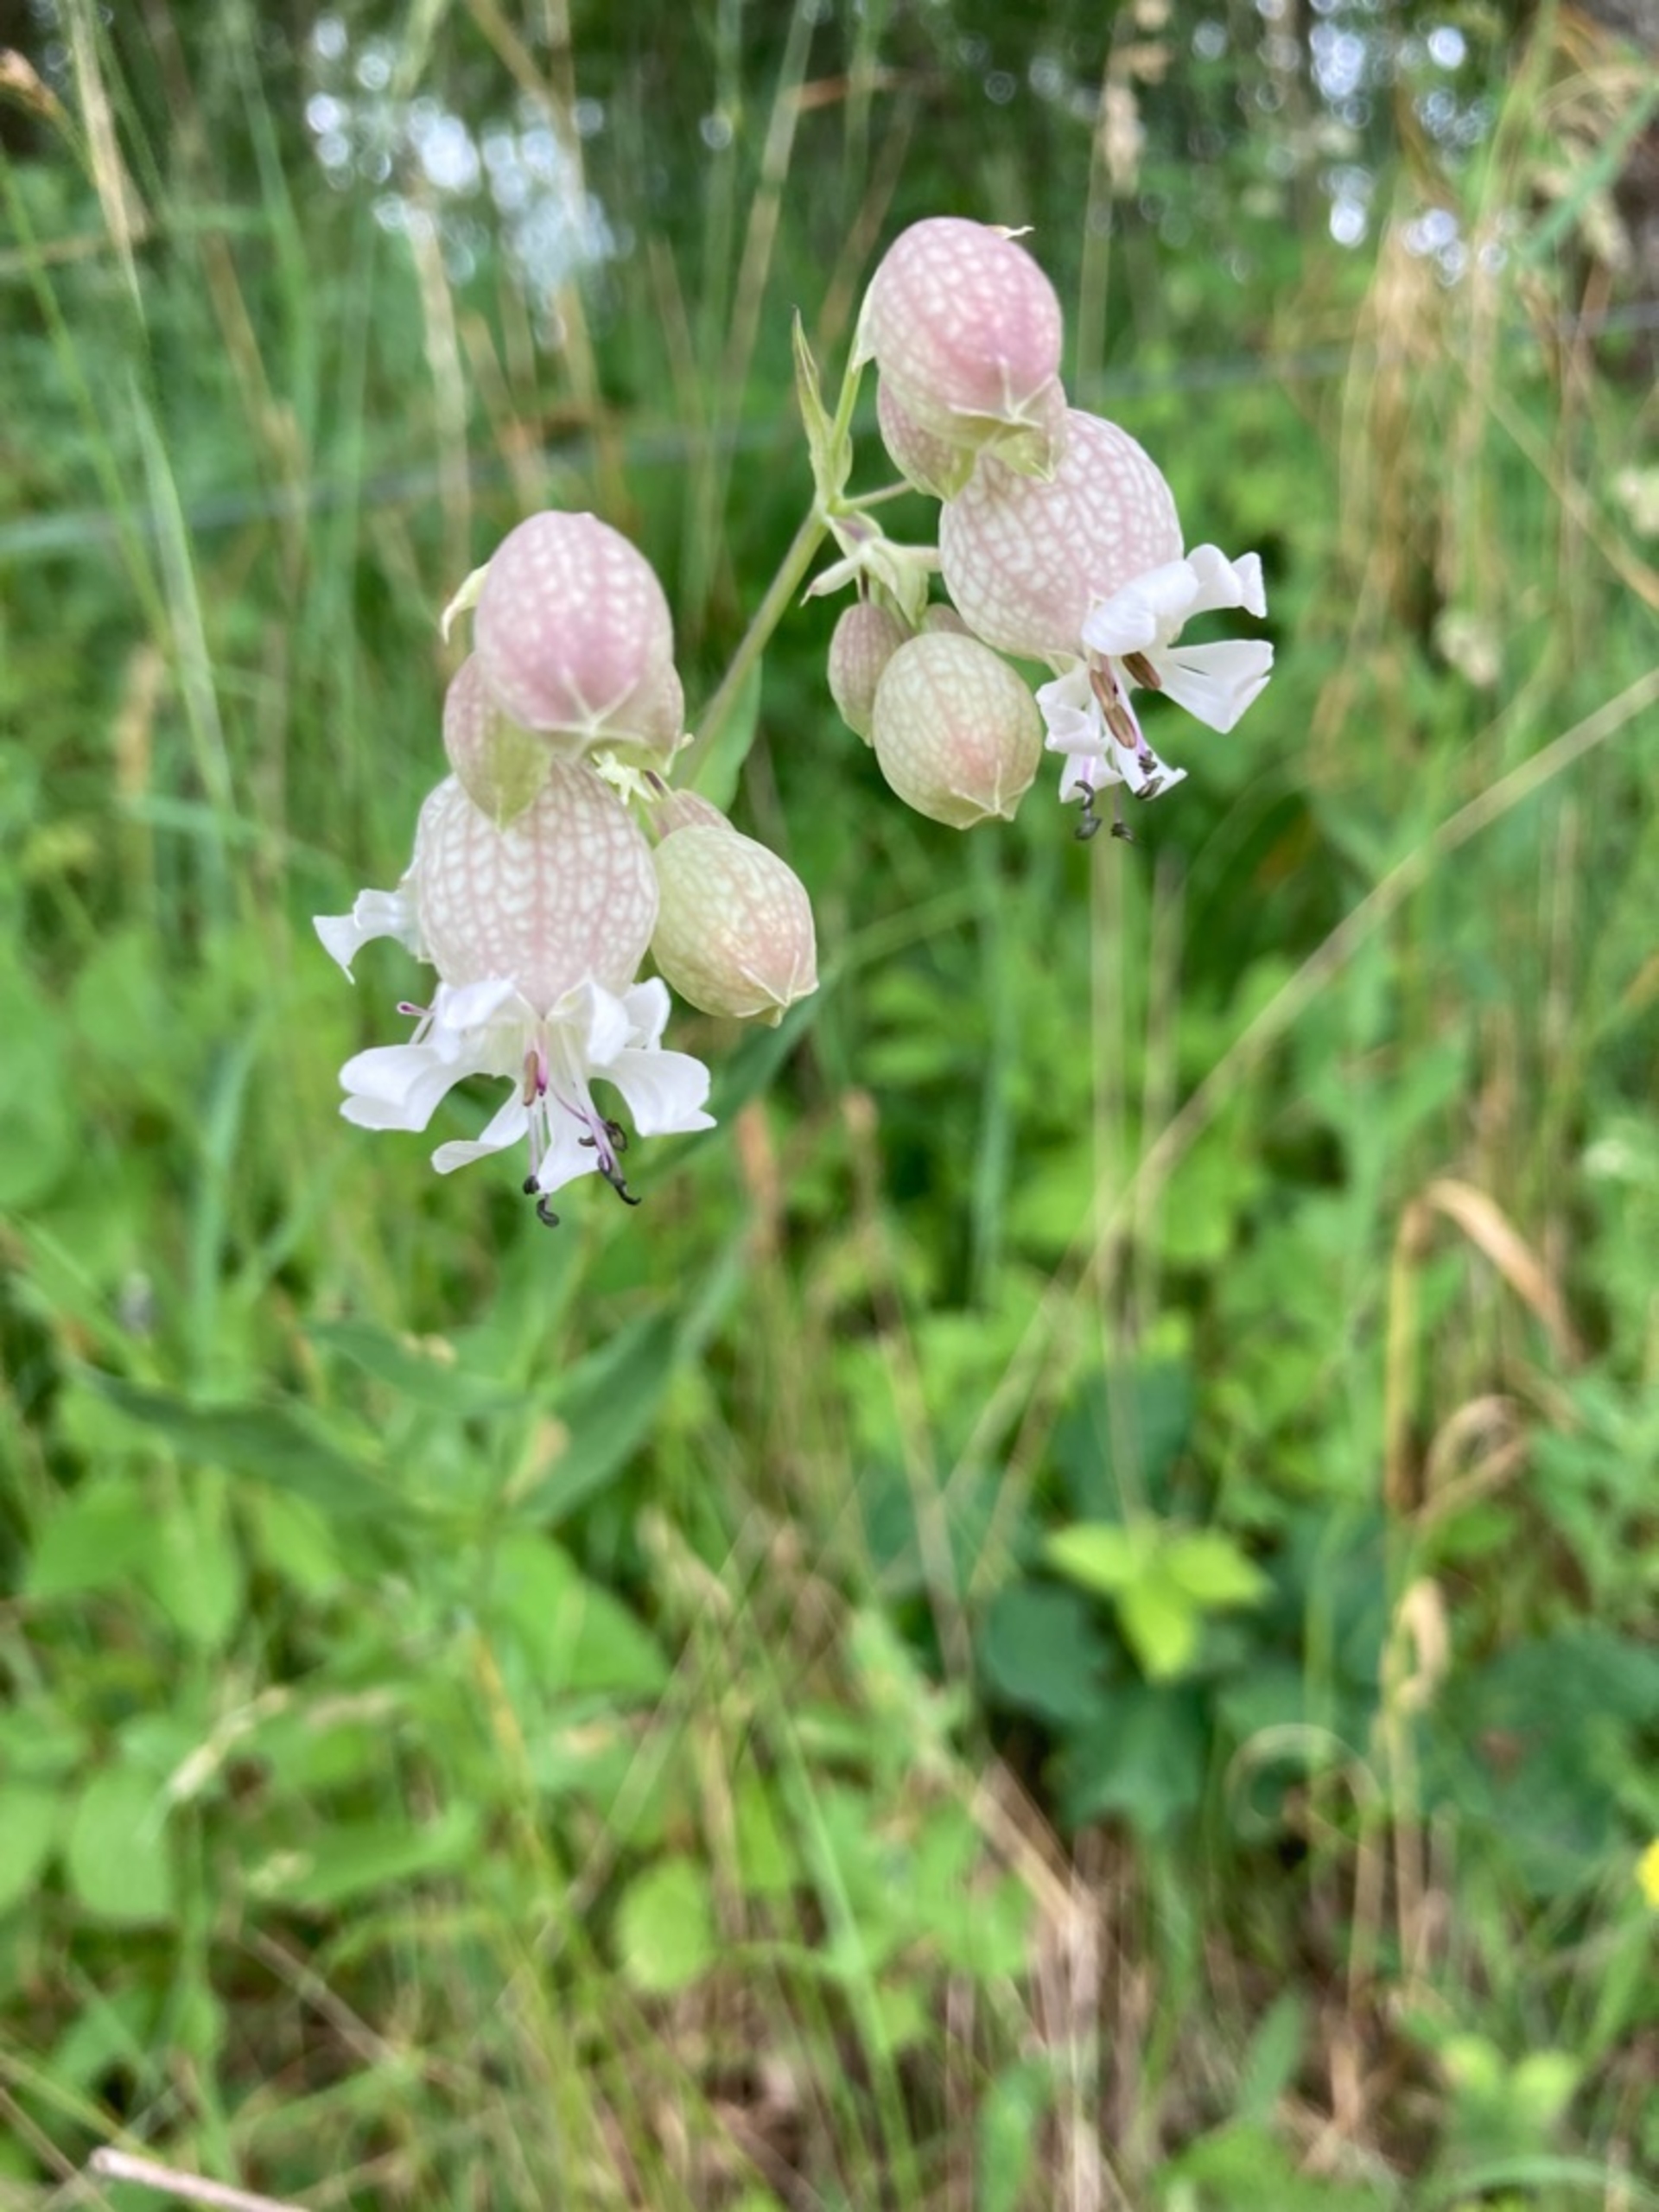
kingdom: Plantae
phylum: Tracheophyta
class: Magnoliopsida
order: Caryophyllales
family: Caryophyllaceae
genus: Silene
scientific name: Silene vulgaris
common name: Blæresmælde
